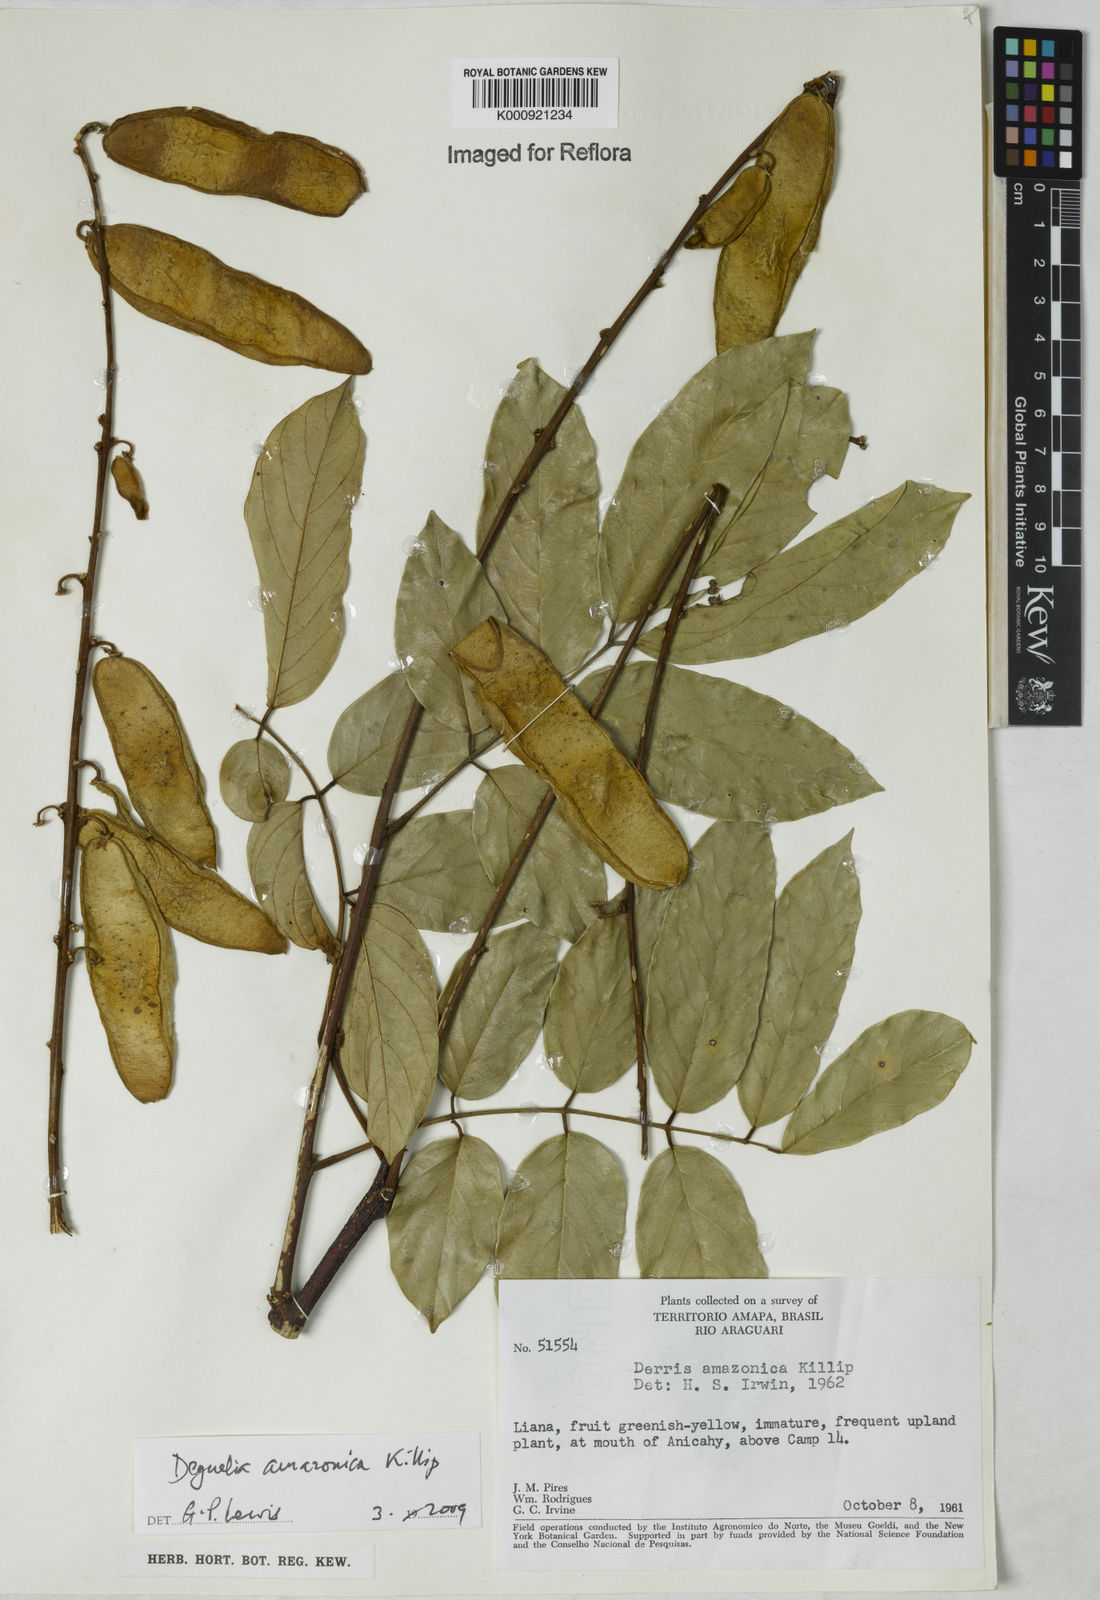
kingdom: Plantae
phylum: Tracheophyta
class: Magnoliopsida
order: Fabales
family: Fabaceae
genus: Deguelia
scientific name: Deguelia amazonica
